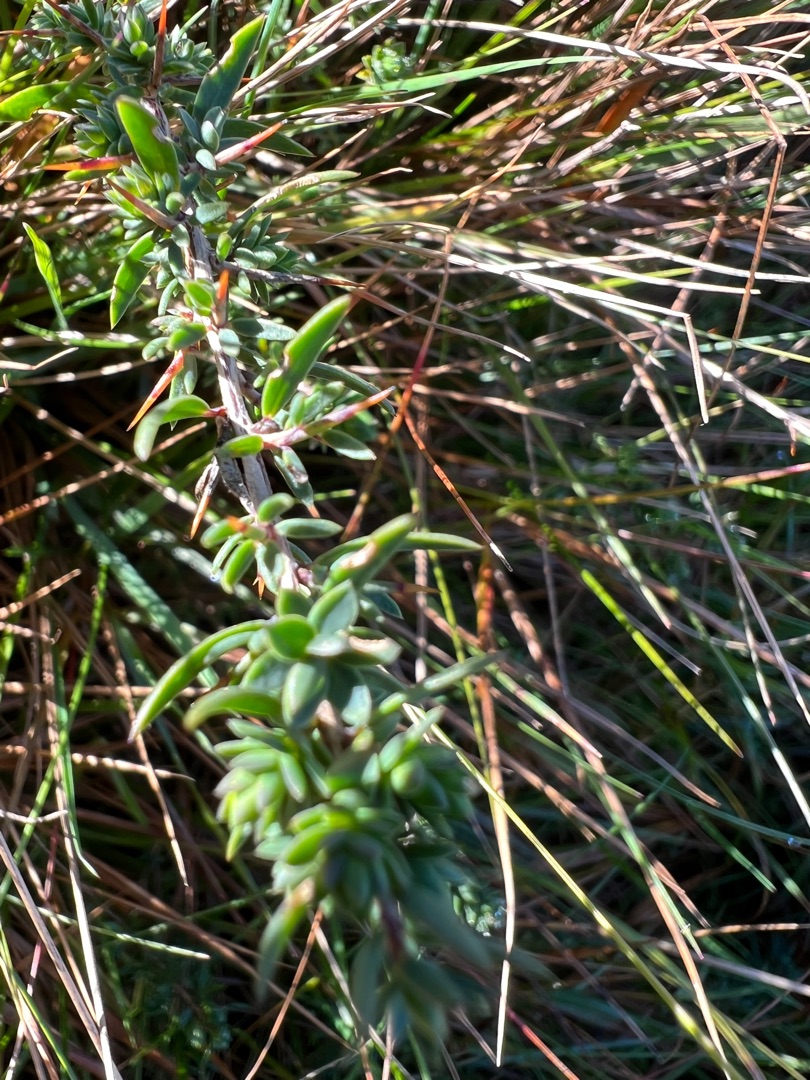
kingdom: Plantae
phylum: Tracheophyta
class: Magnoliopsida
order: Fabales
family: Fabaceae
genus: Genista
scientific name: Genista anglica
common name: Engelsk visse
